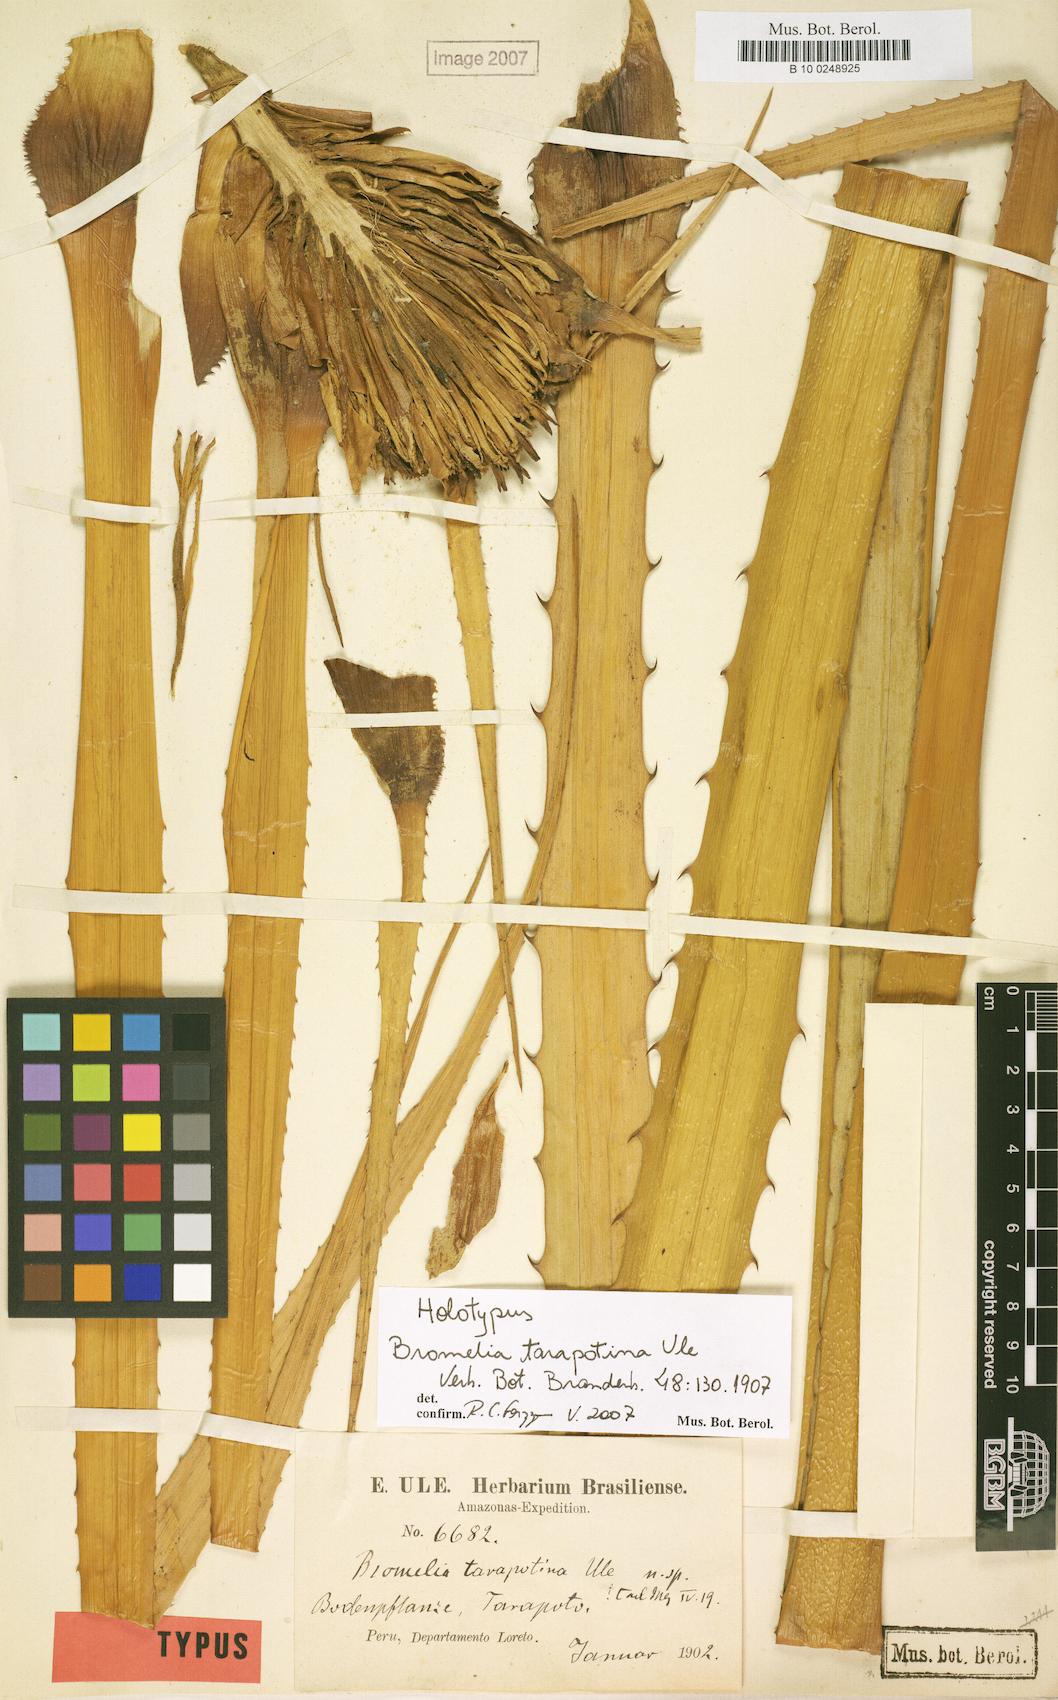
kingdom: Plantae
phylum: Tracheophyta
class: Liliopsida
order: Poales
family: Bromeliaceae
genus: Bromelia
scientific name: Bromelia tarapotina
